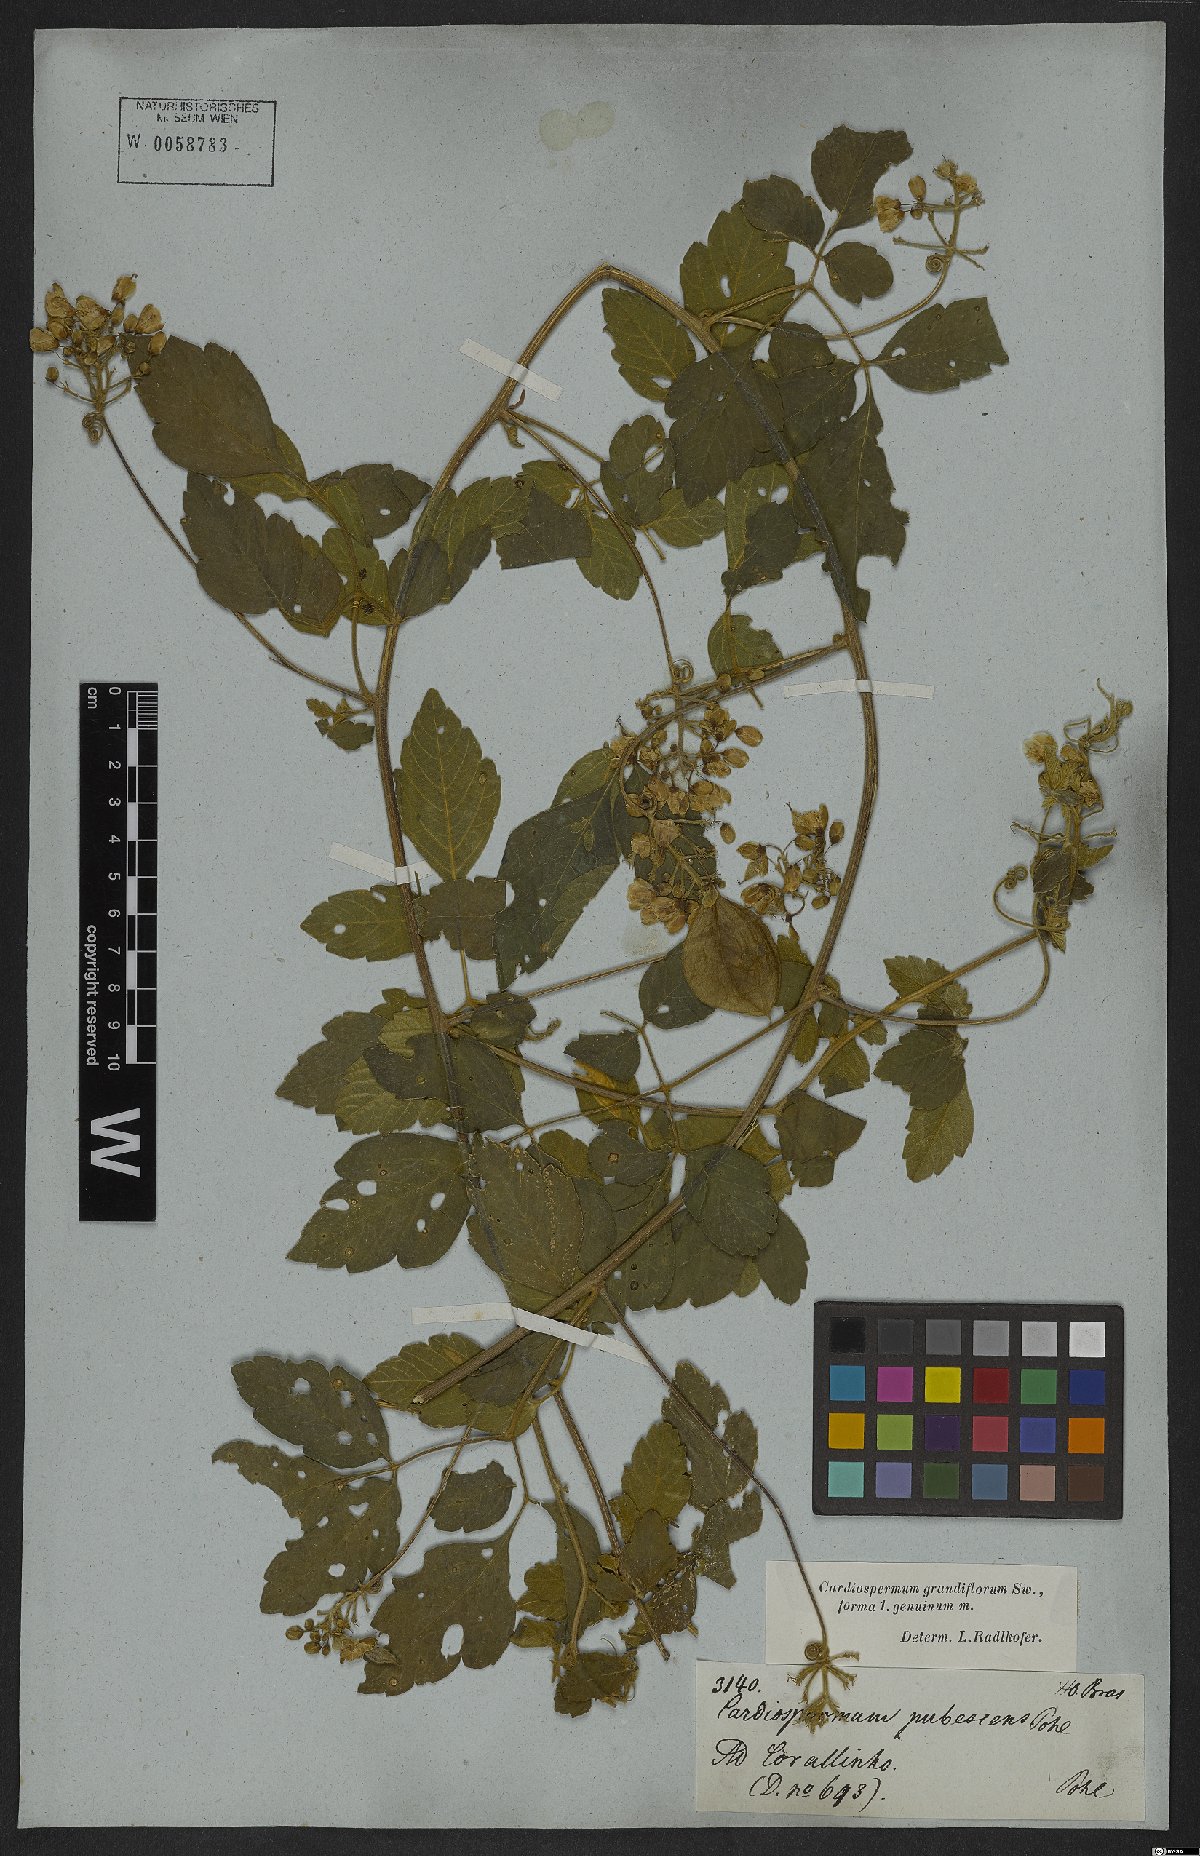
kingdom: Plantae
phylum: Tracheophyta
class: Magnoliopsida
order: Sapindales
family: Sapindaceae
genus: Cardiospermum
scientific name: Cardiospermum grandiflorum
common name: Balloon vine
